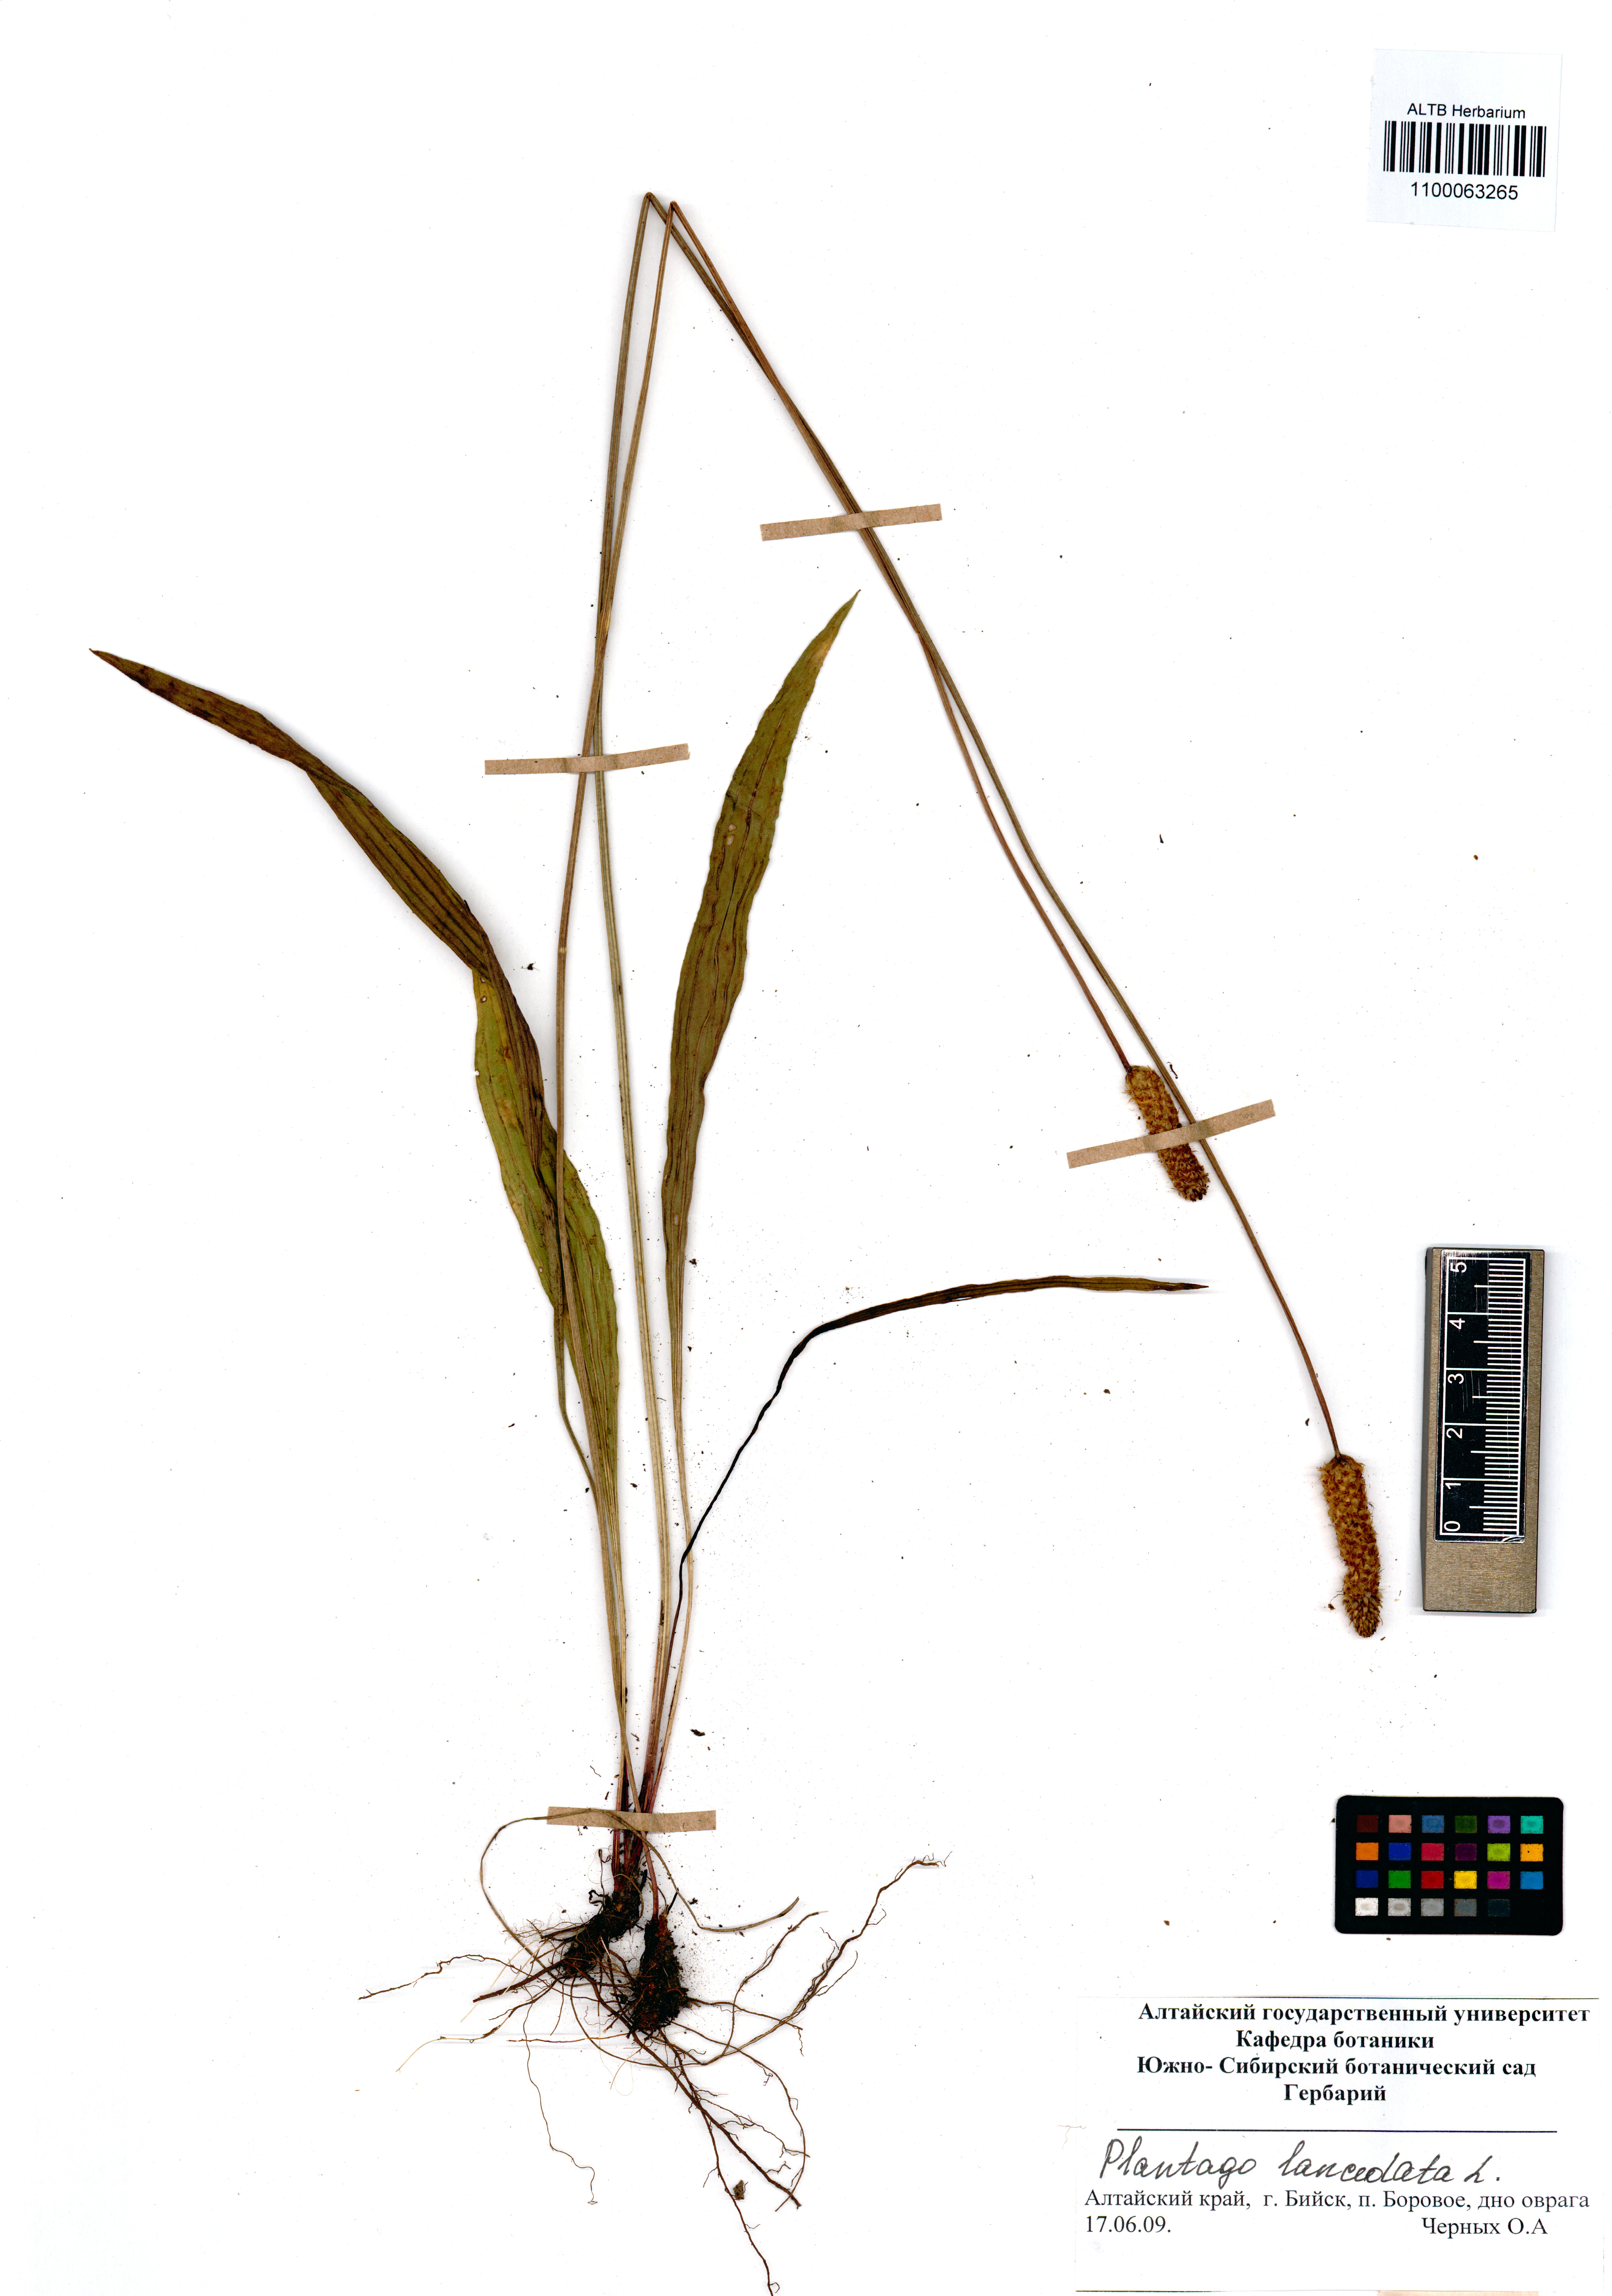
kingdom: Plantae
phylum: Tracheophyta
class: Magnoliopsida
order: Lamiales
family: Plantaginaceae
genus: Plantago
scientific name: Plantago lanceolata
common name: Ribwort plantain
